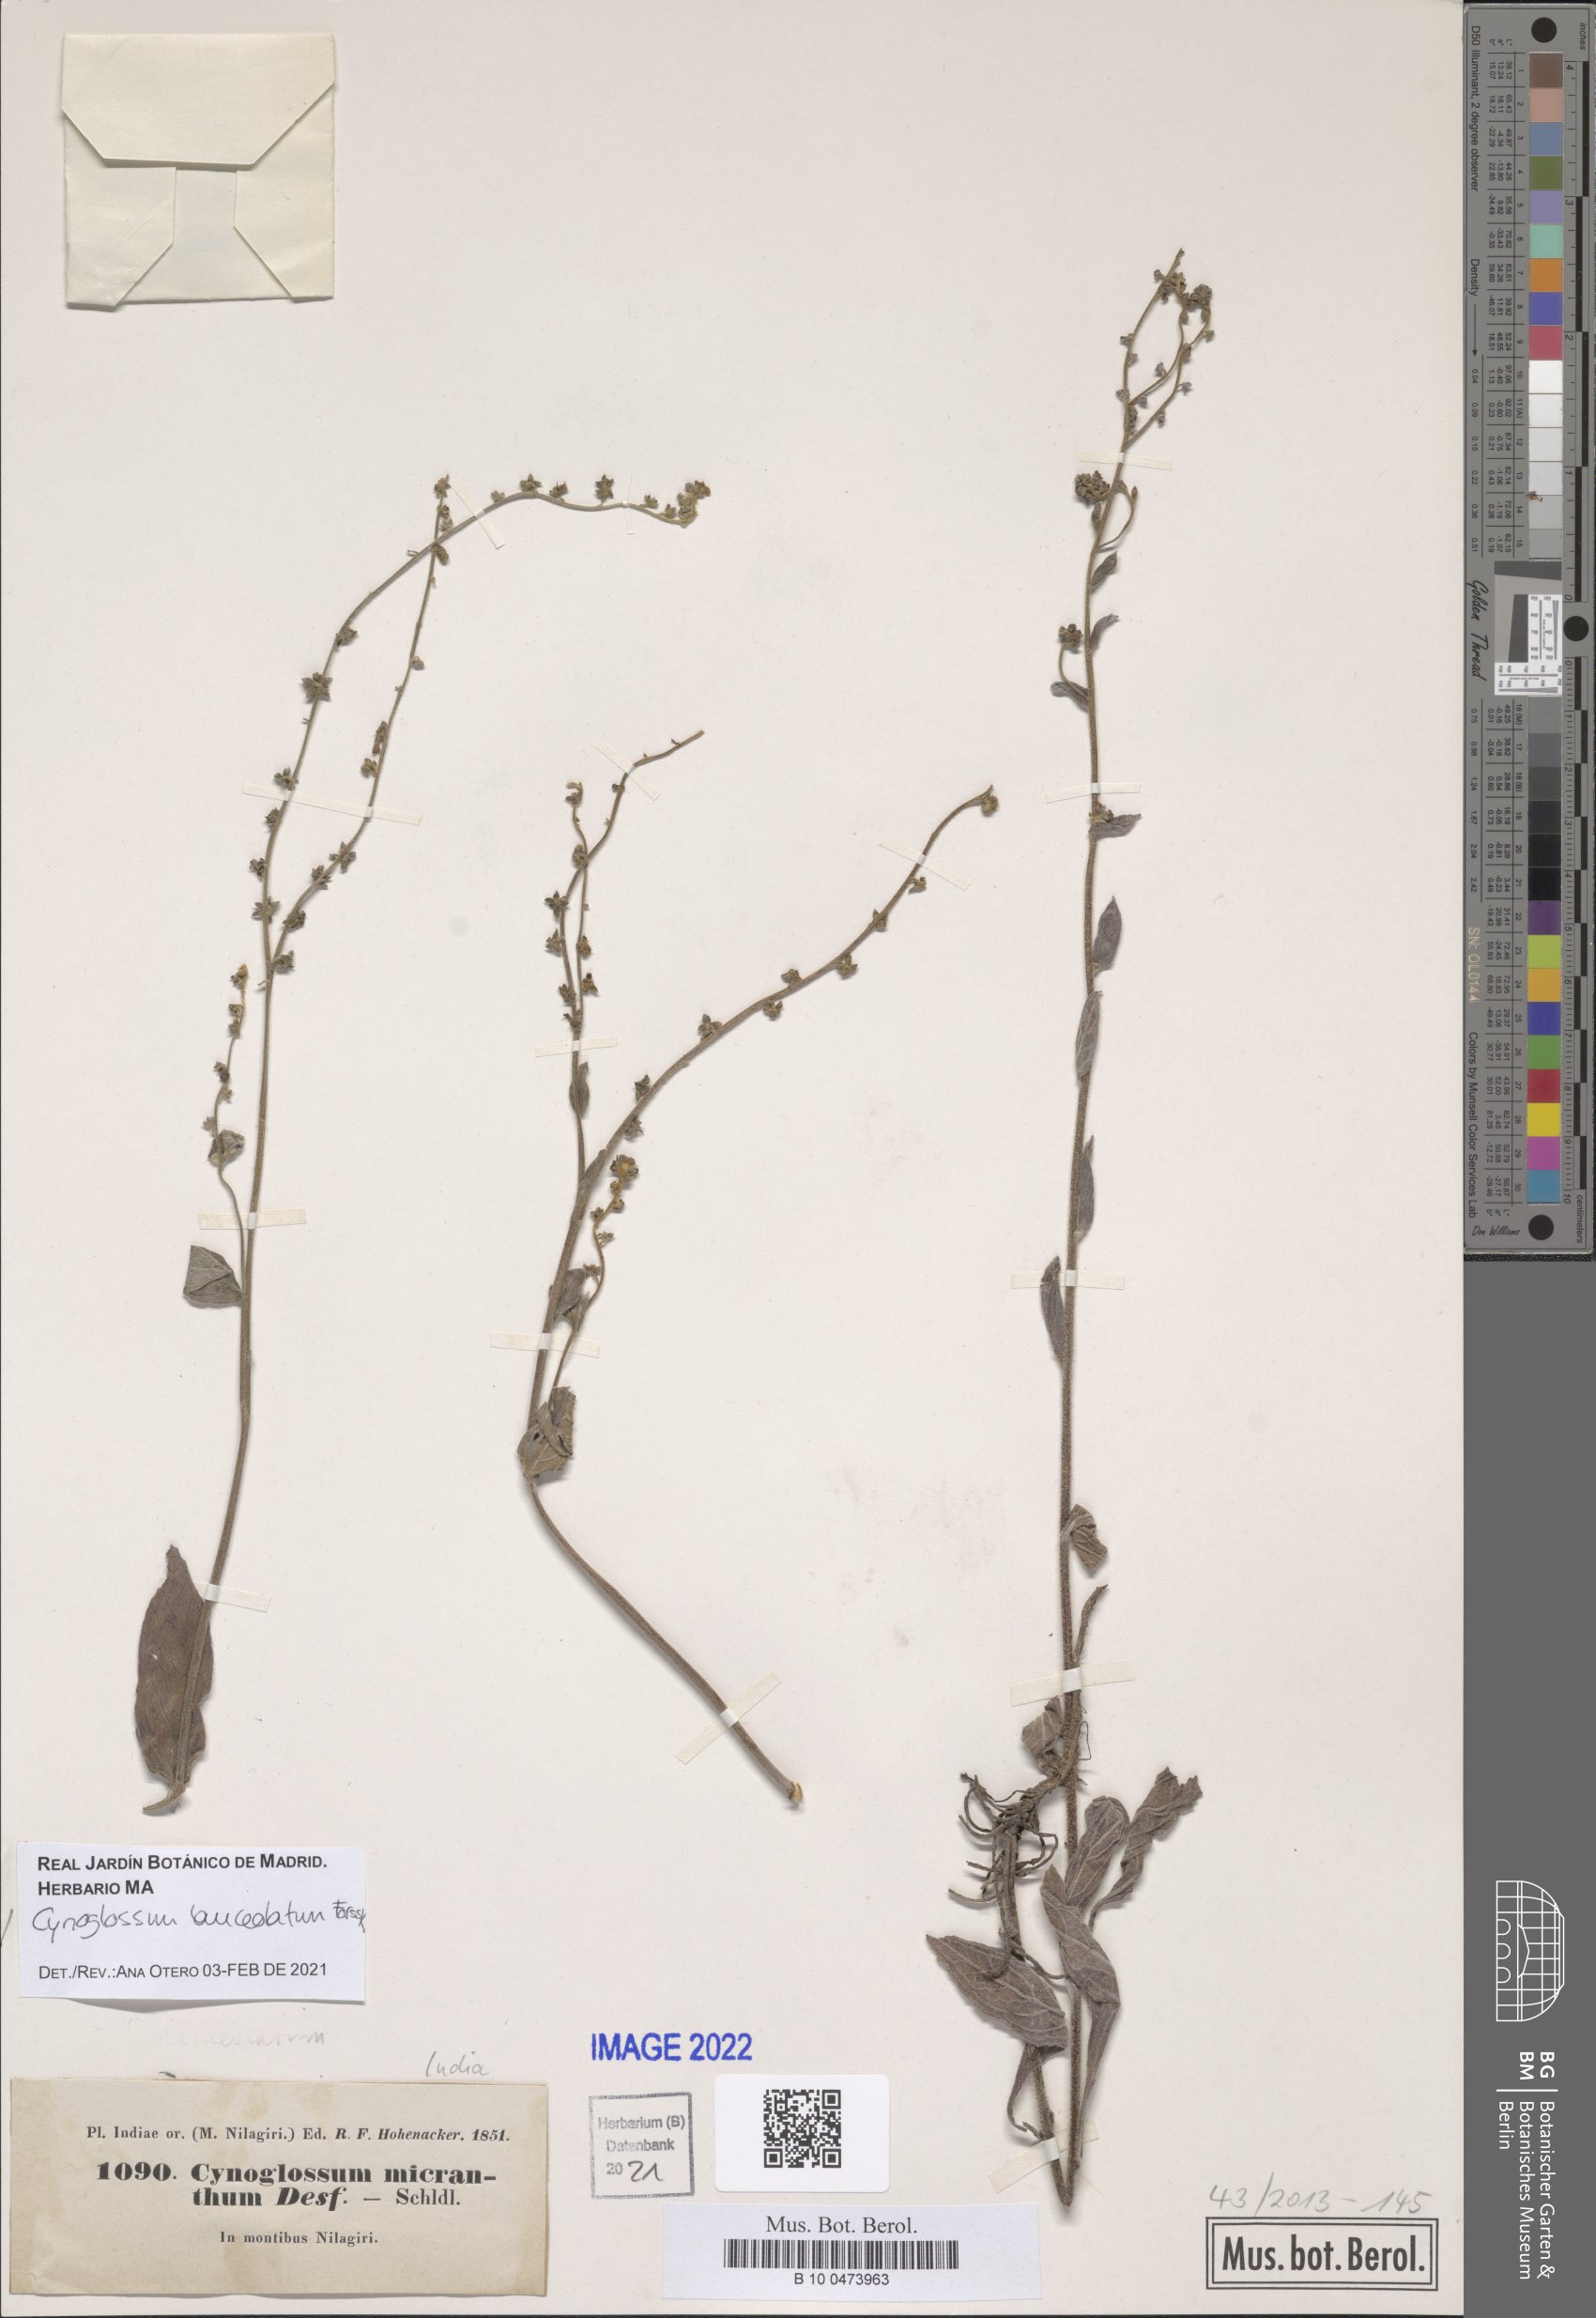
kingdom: Plantae
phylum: Tracheophyta
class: Magnoliopsida
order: Boraginales
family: Boraginaceae
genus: Paracynoglossum
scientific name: Paracynoglossum lanceolatum
